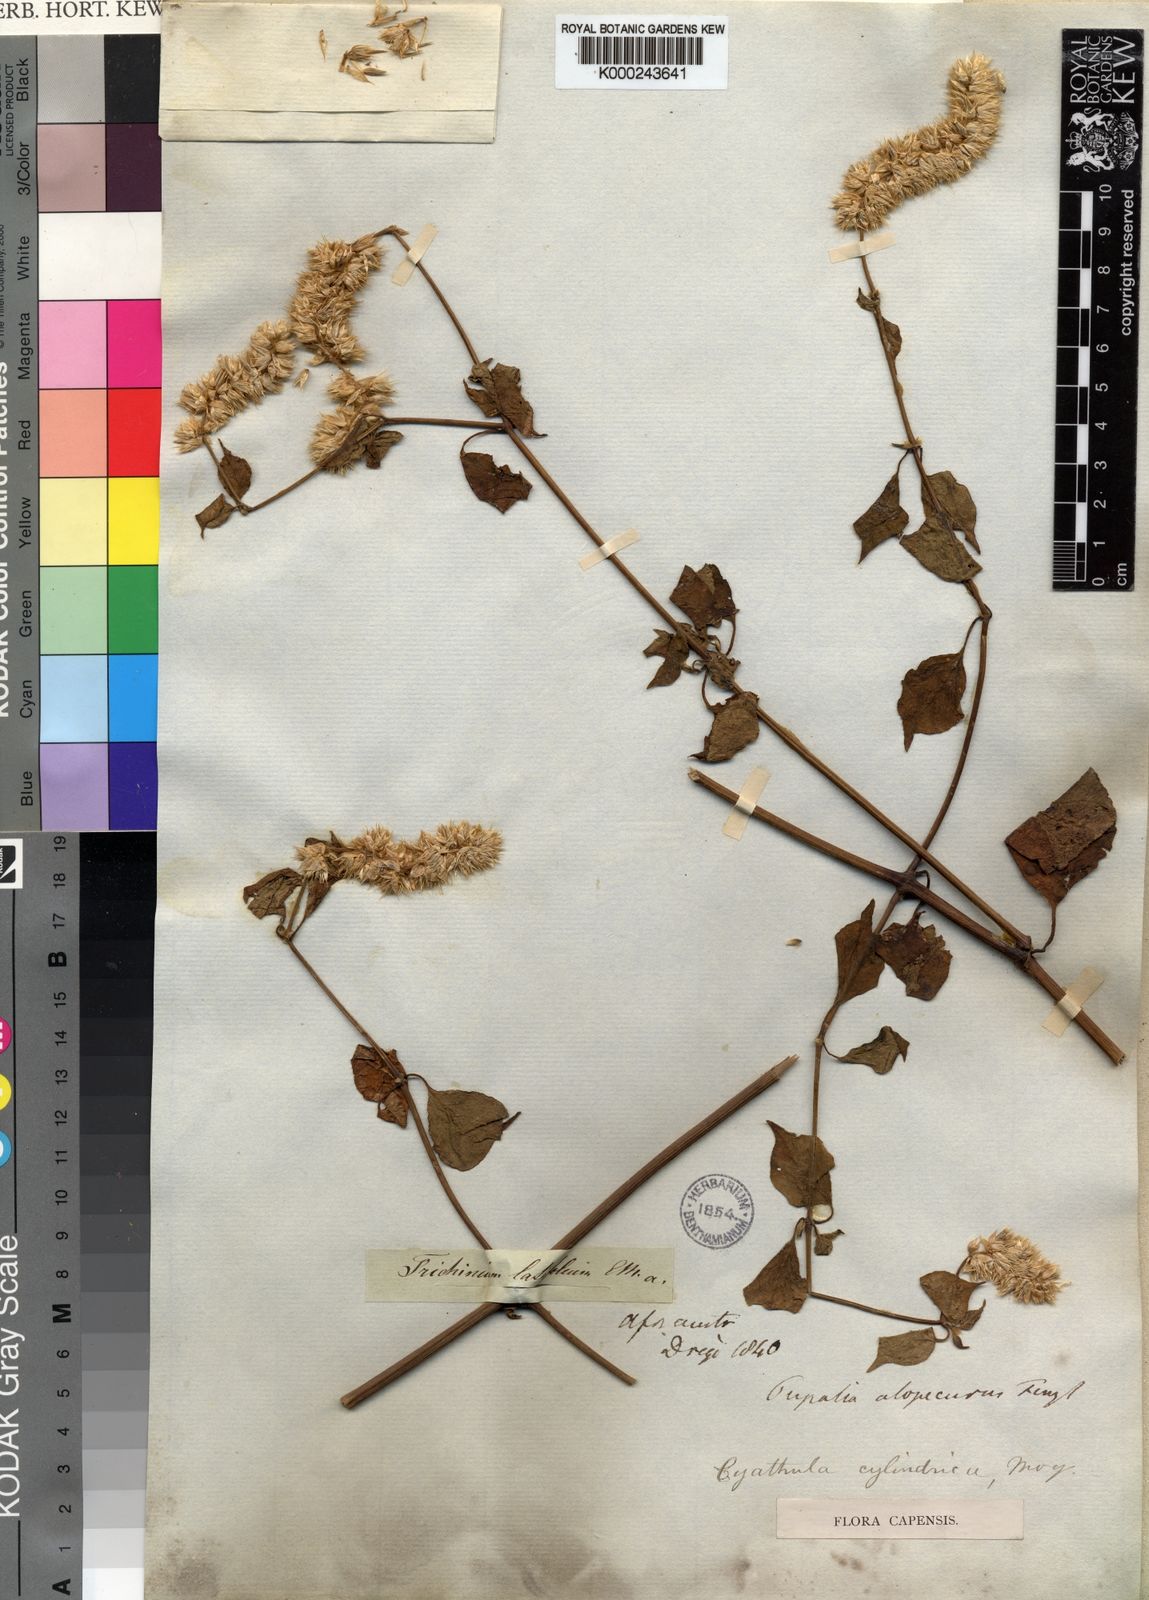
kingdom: Plantae
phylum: Tracheophyta
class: Magnoliopsida
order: Caryophyllales
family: Amaranthaceae
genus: Cyathula
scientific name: Cyathula cylindrica
